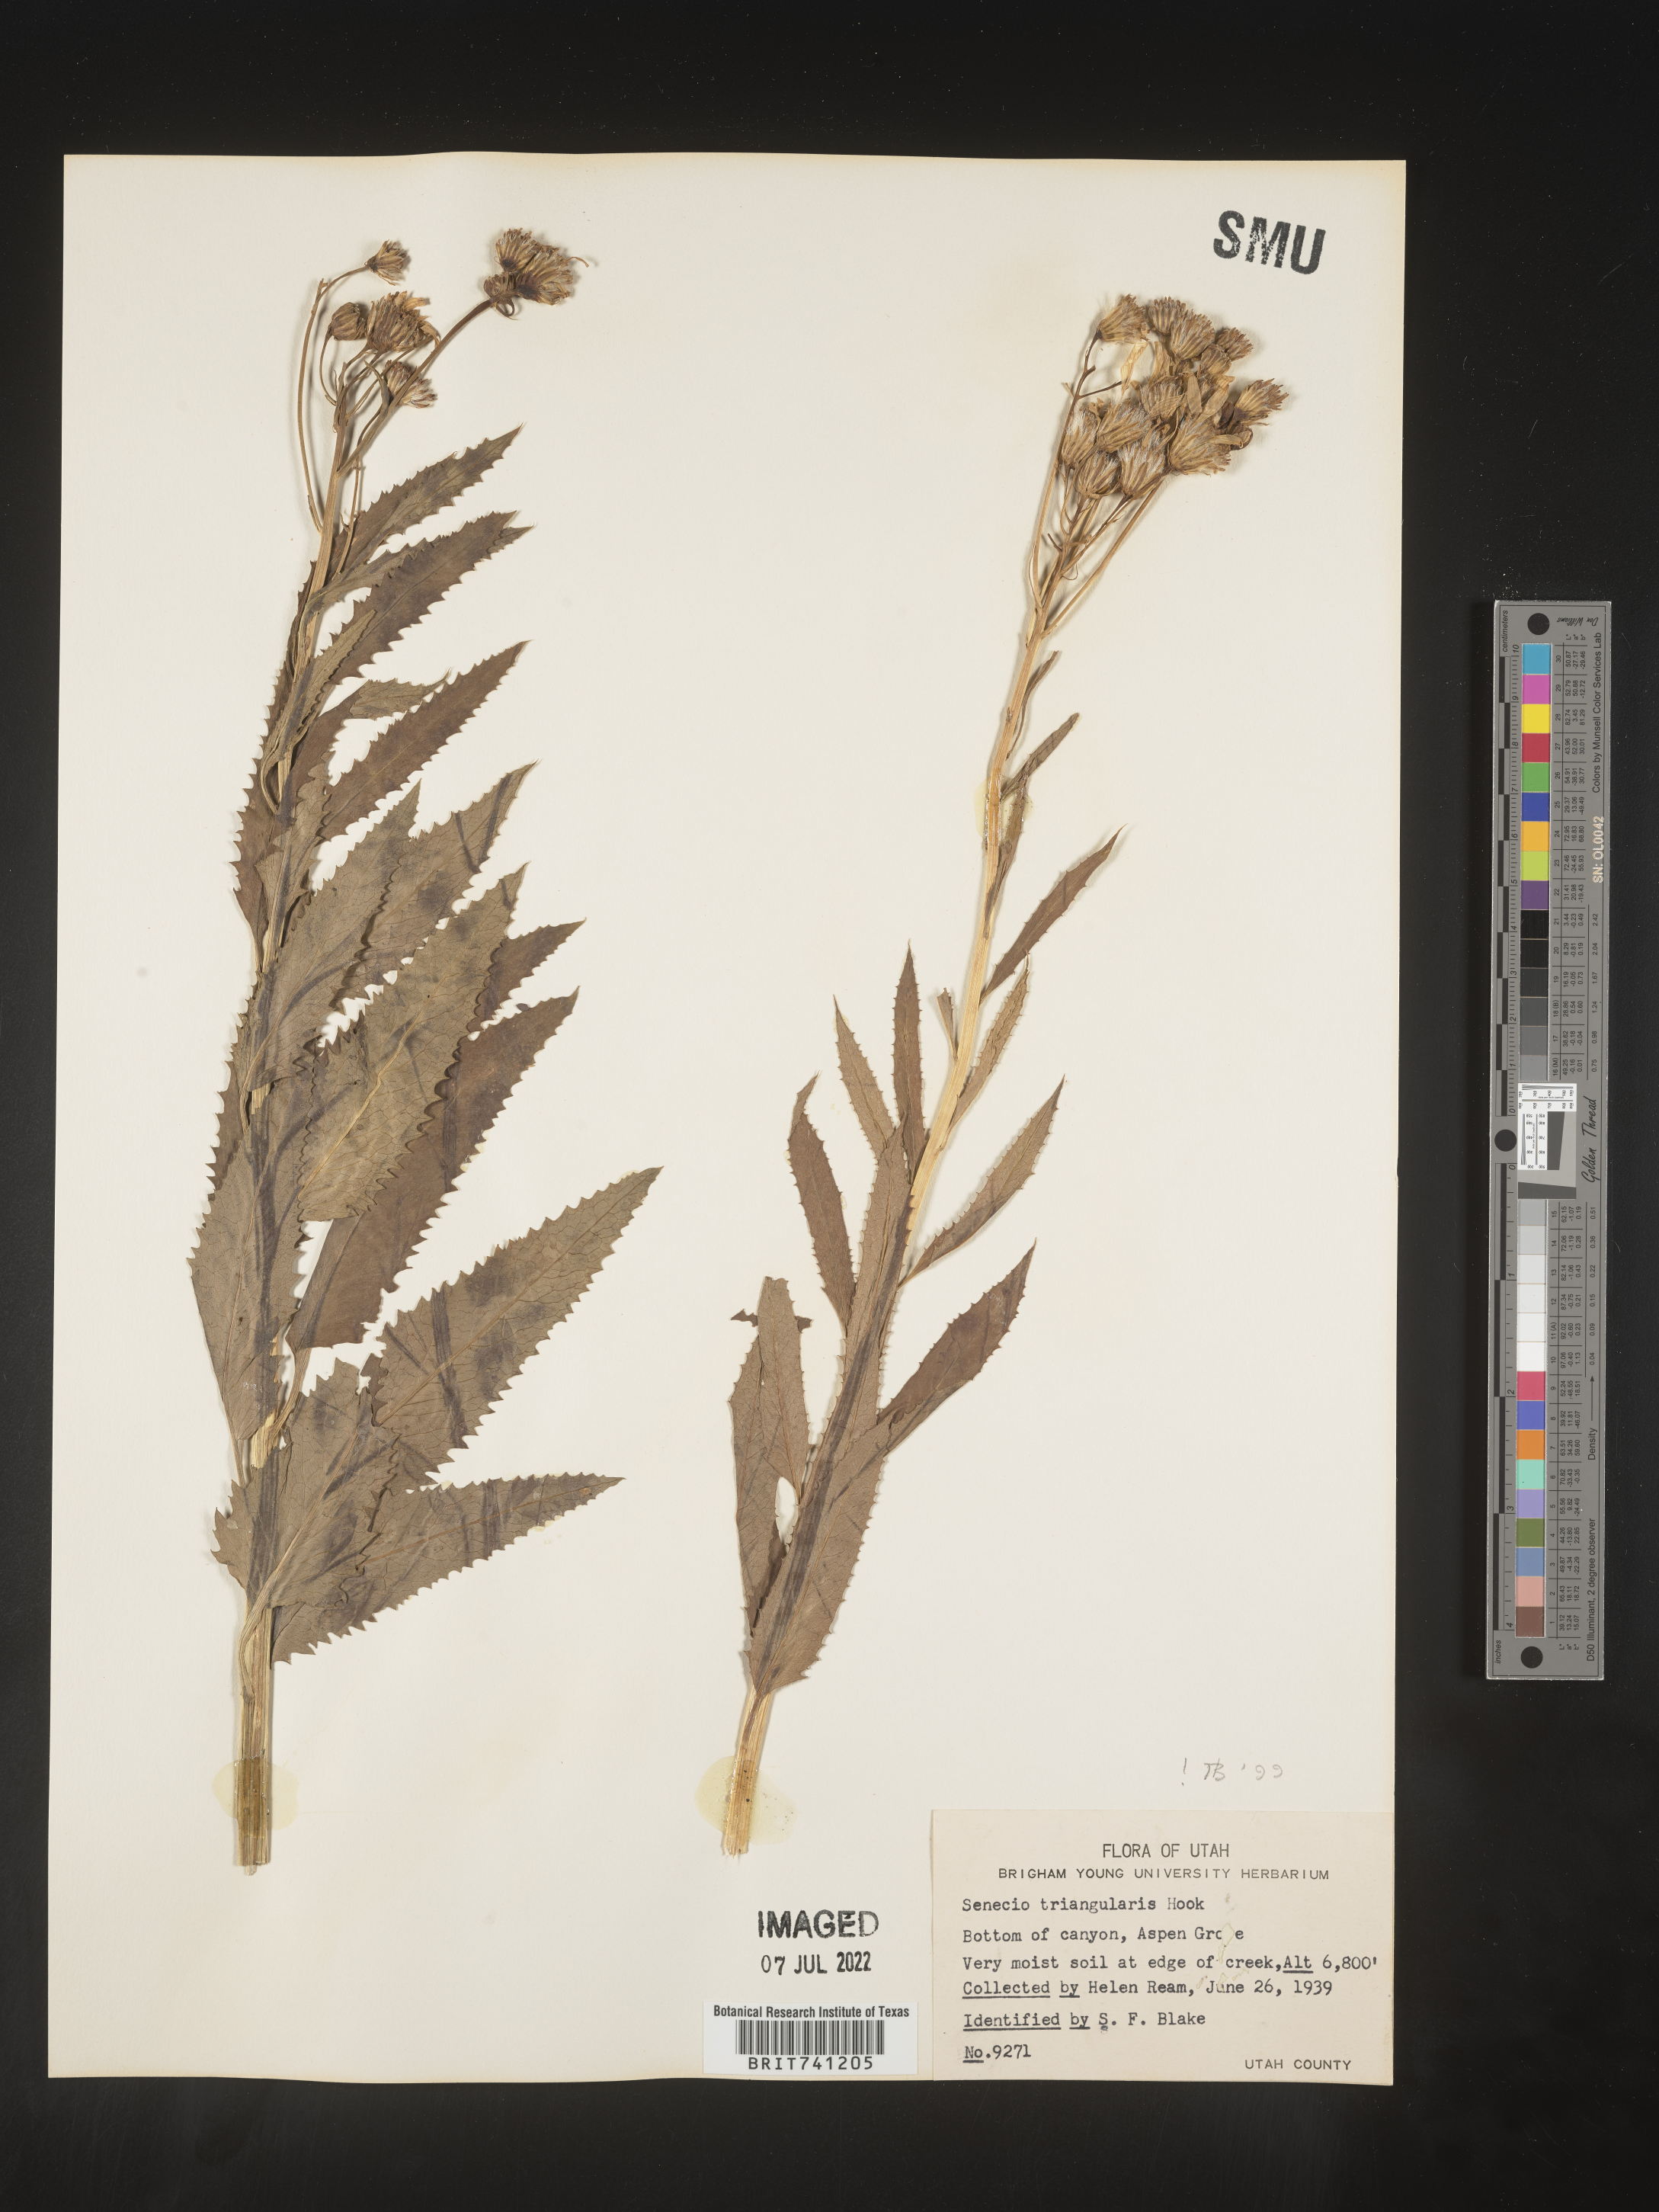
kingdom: Plantae
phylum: Tracheophyta
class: Magnoliopsida
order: Asterales
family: Asteraceae
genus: Senecio
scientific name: Senecio triangularis
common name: Arrowleaf butterweed
